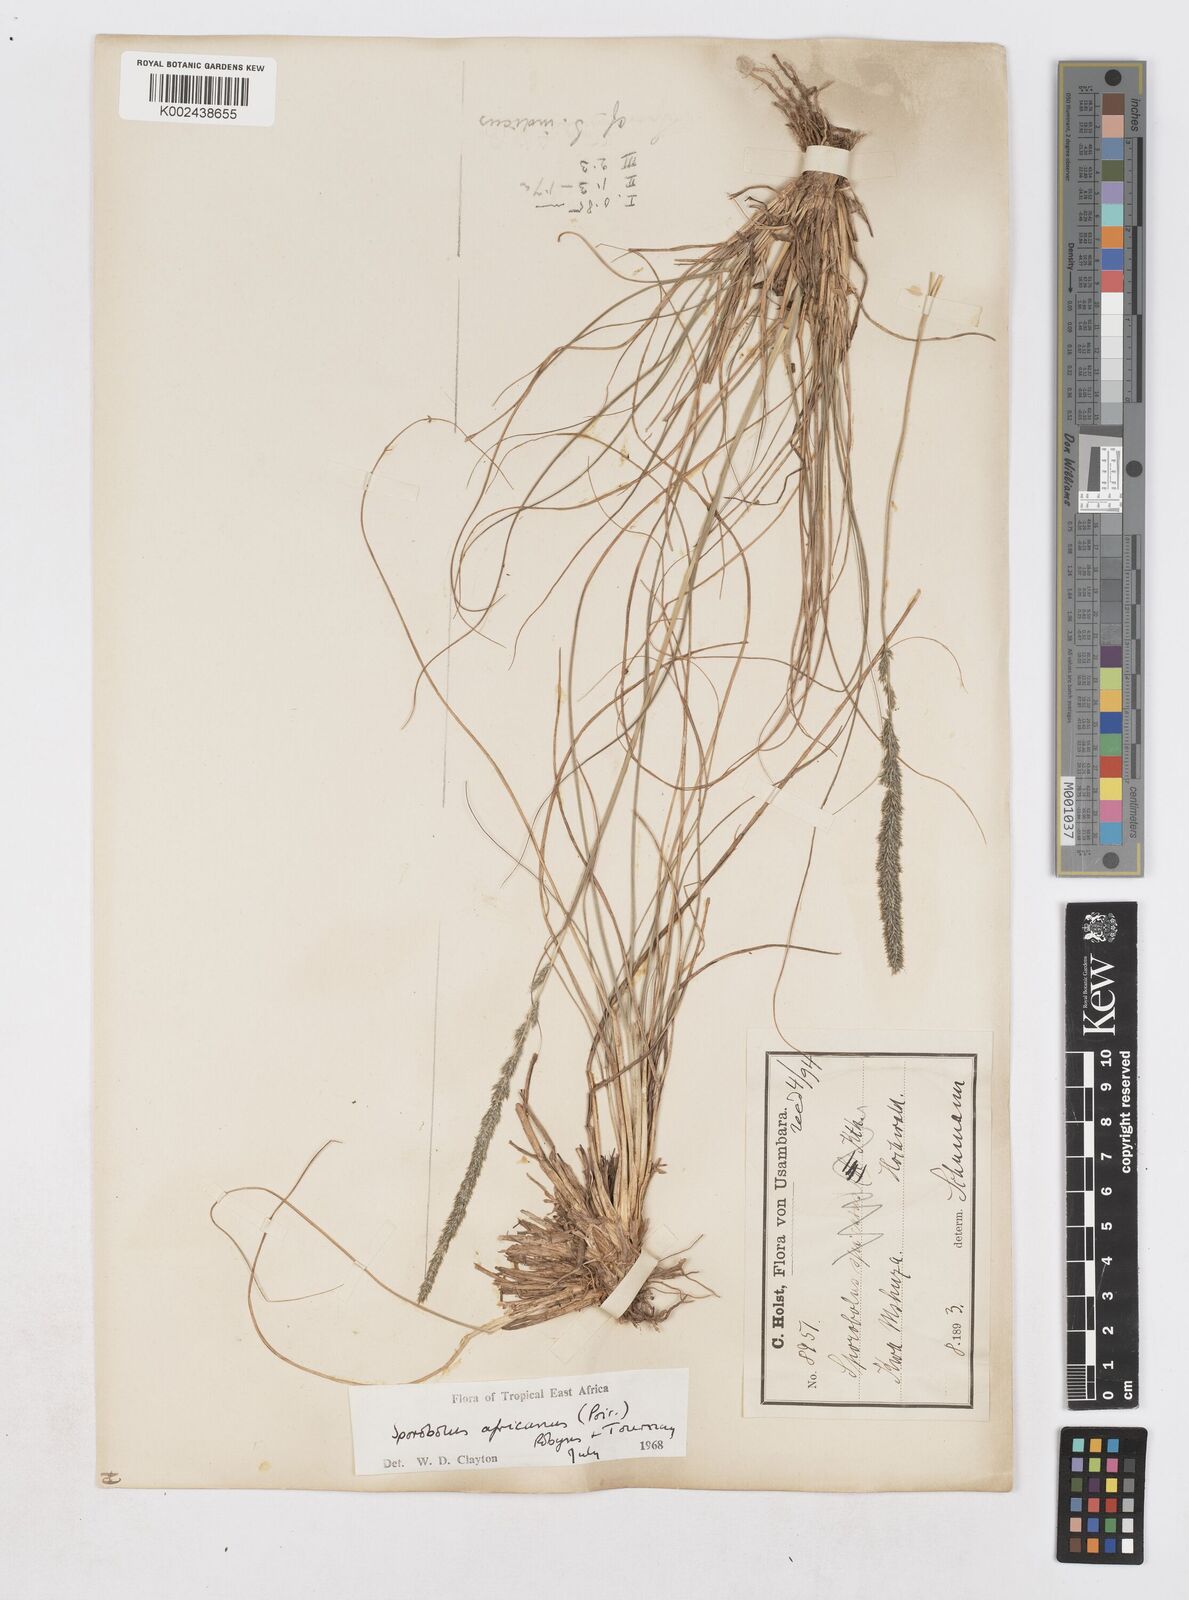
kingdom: Plantae
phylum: Tracheophyta
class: Liliopsida
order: Poales
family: Poaceae
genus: Sporobolus
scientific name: Sporobolus africanus
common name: African dropseed
